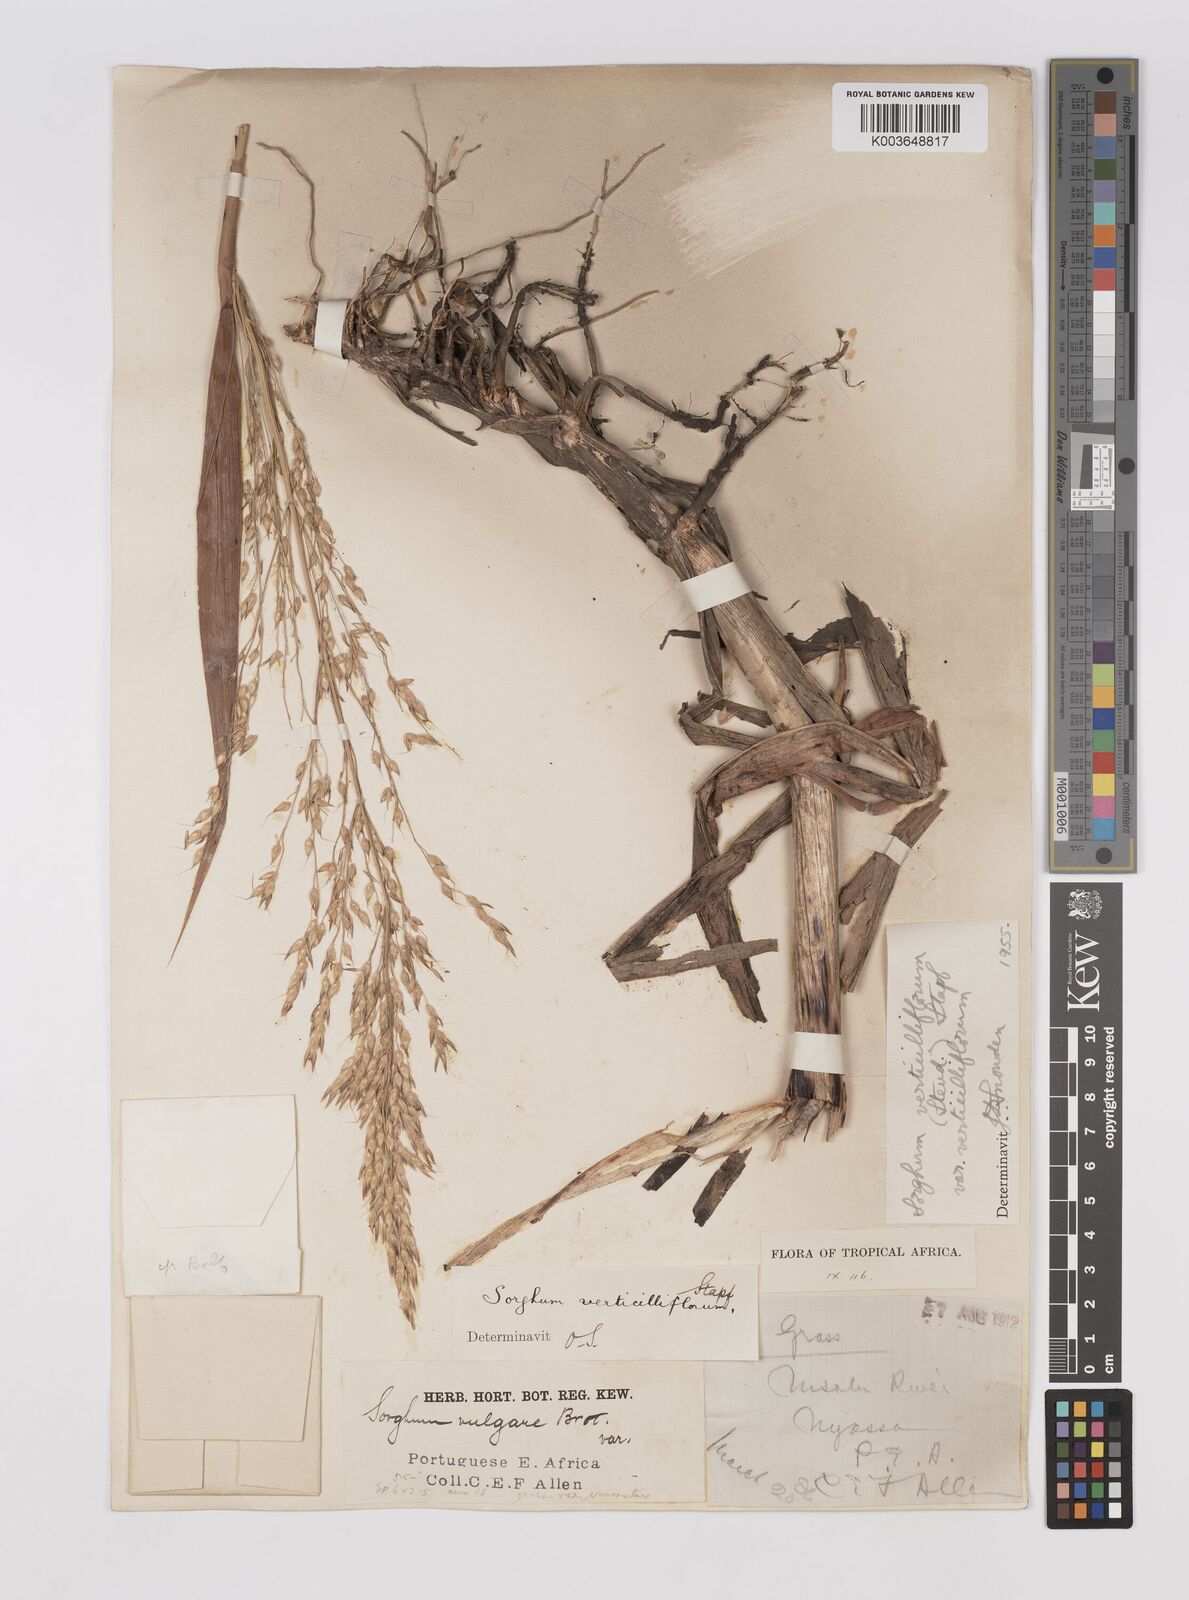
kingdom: Plantae
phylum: Tracheophyta
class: Liliopsida
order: Poales
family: Poaceae
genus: Sorghum
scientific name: Sorghum arundinaceum
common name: Sorghum
